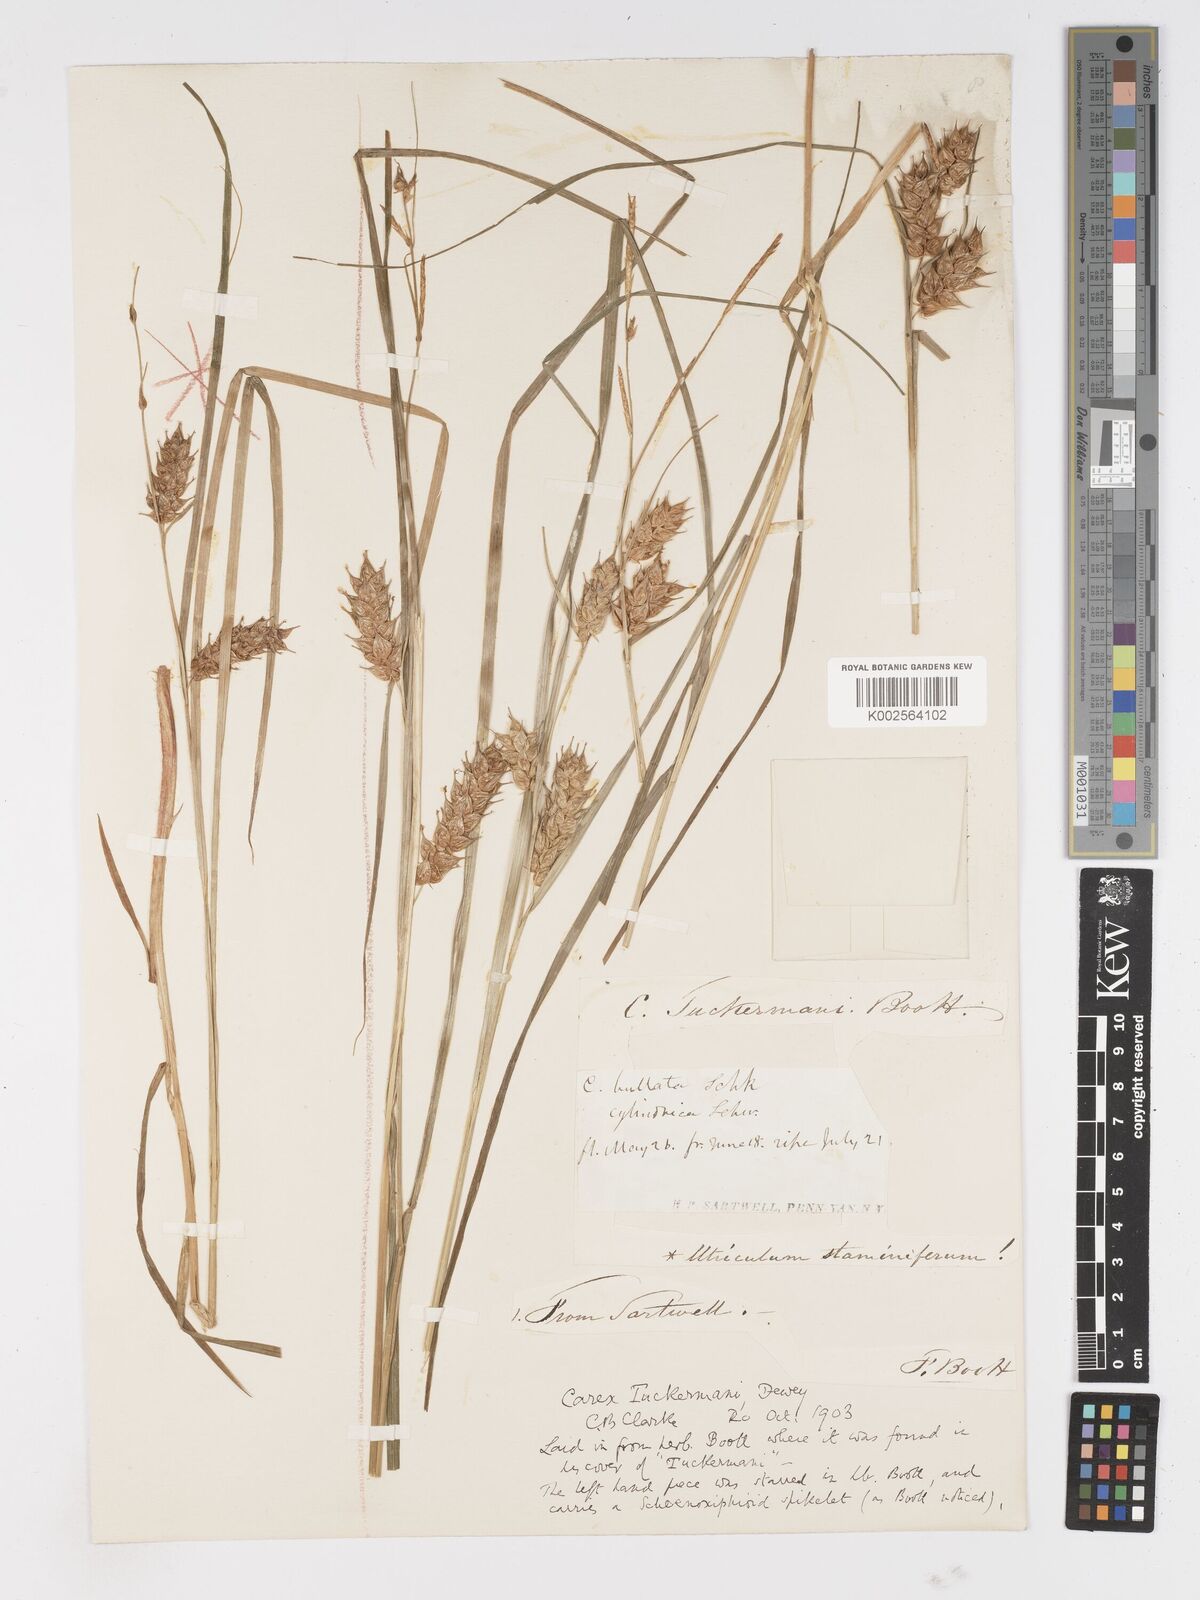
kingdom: Plantae
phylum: Tracheophyta
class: Liliopsida
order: Poales
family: Cyperaceae
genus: Carex
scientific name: Carex tuckermanii
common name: Tuckerman's sedge
